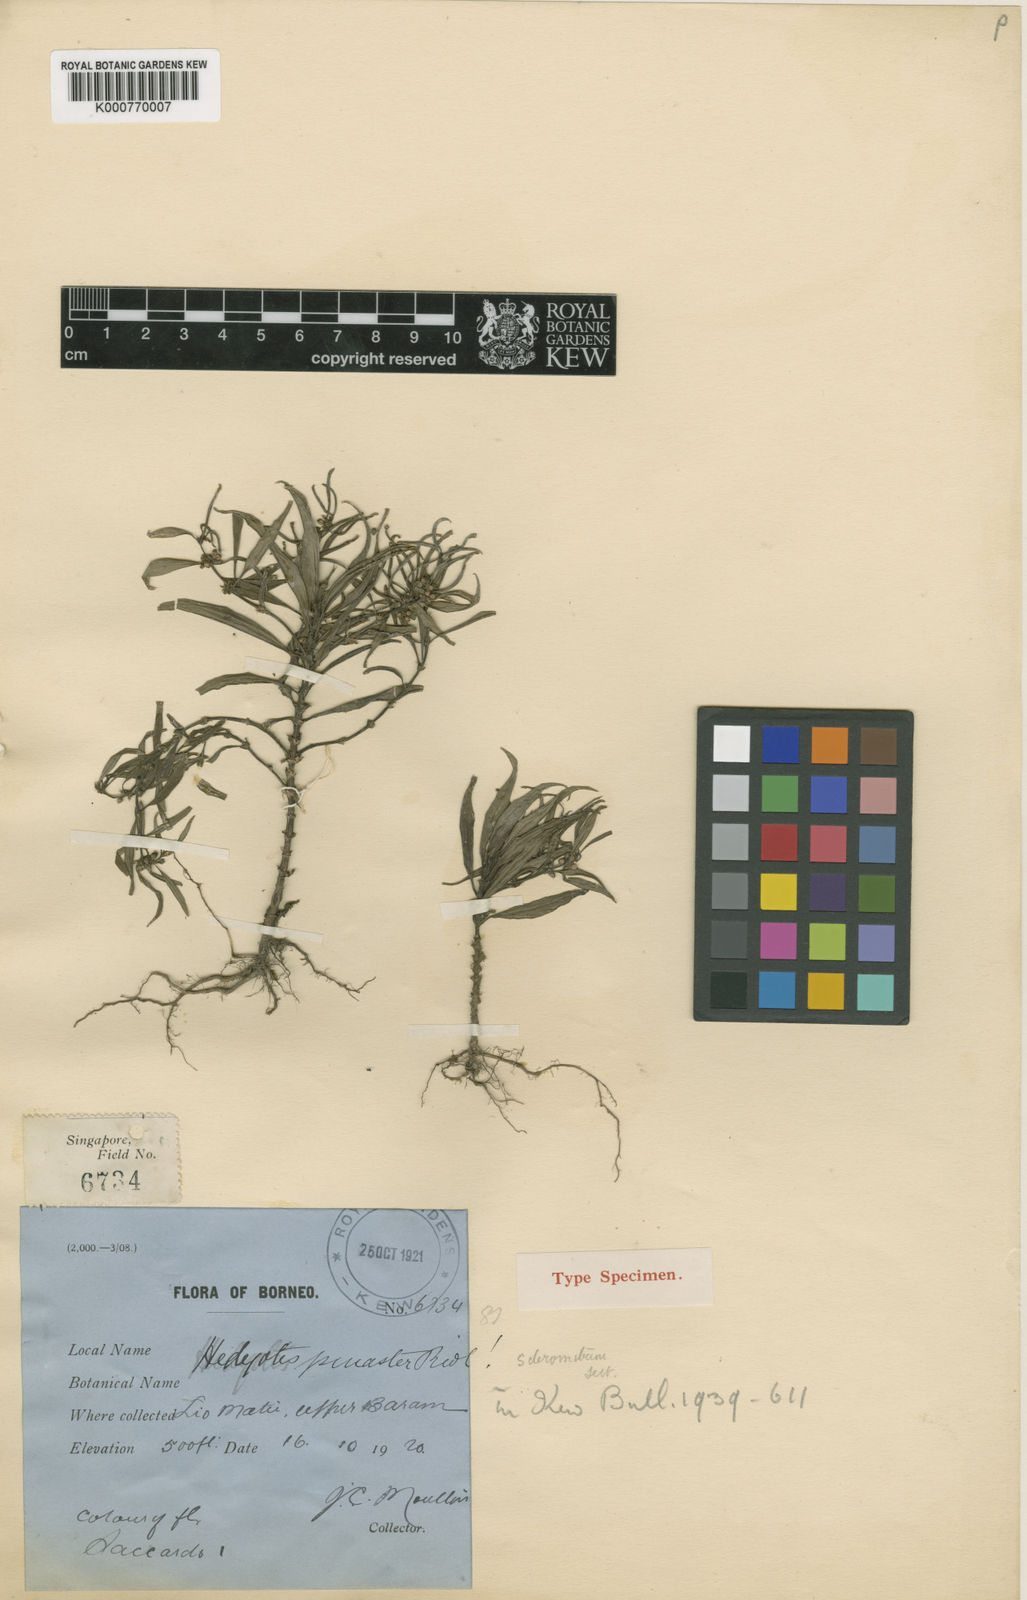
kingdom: Plantae
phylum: Tracheophyta
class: Magnoliopsida
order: Gentianales
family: Rubiaceae
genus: Exallage
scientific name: Exallage
